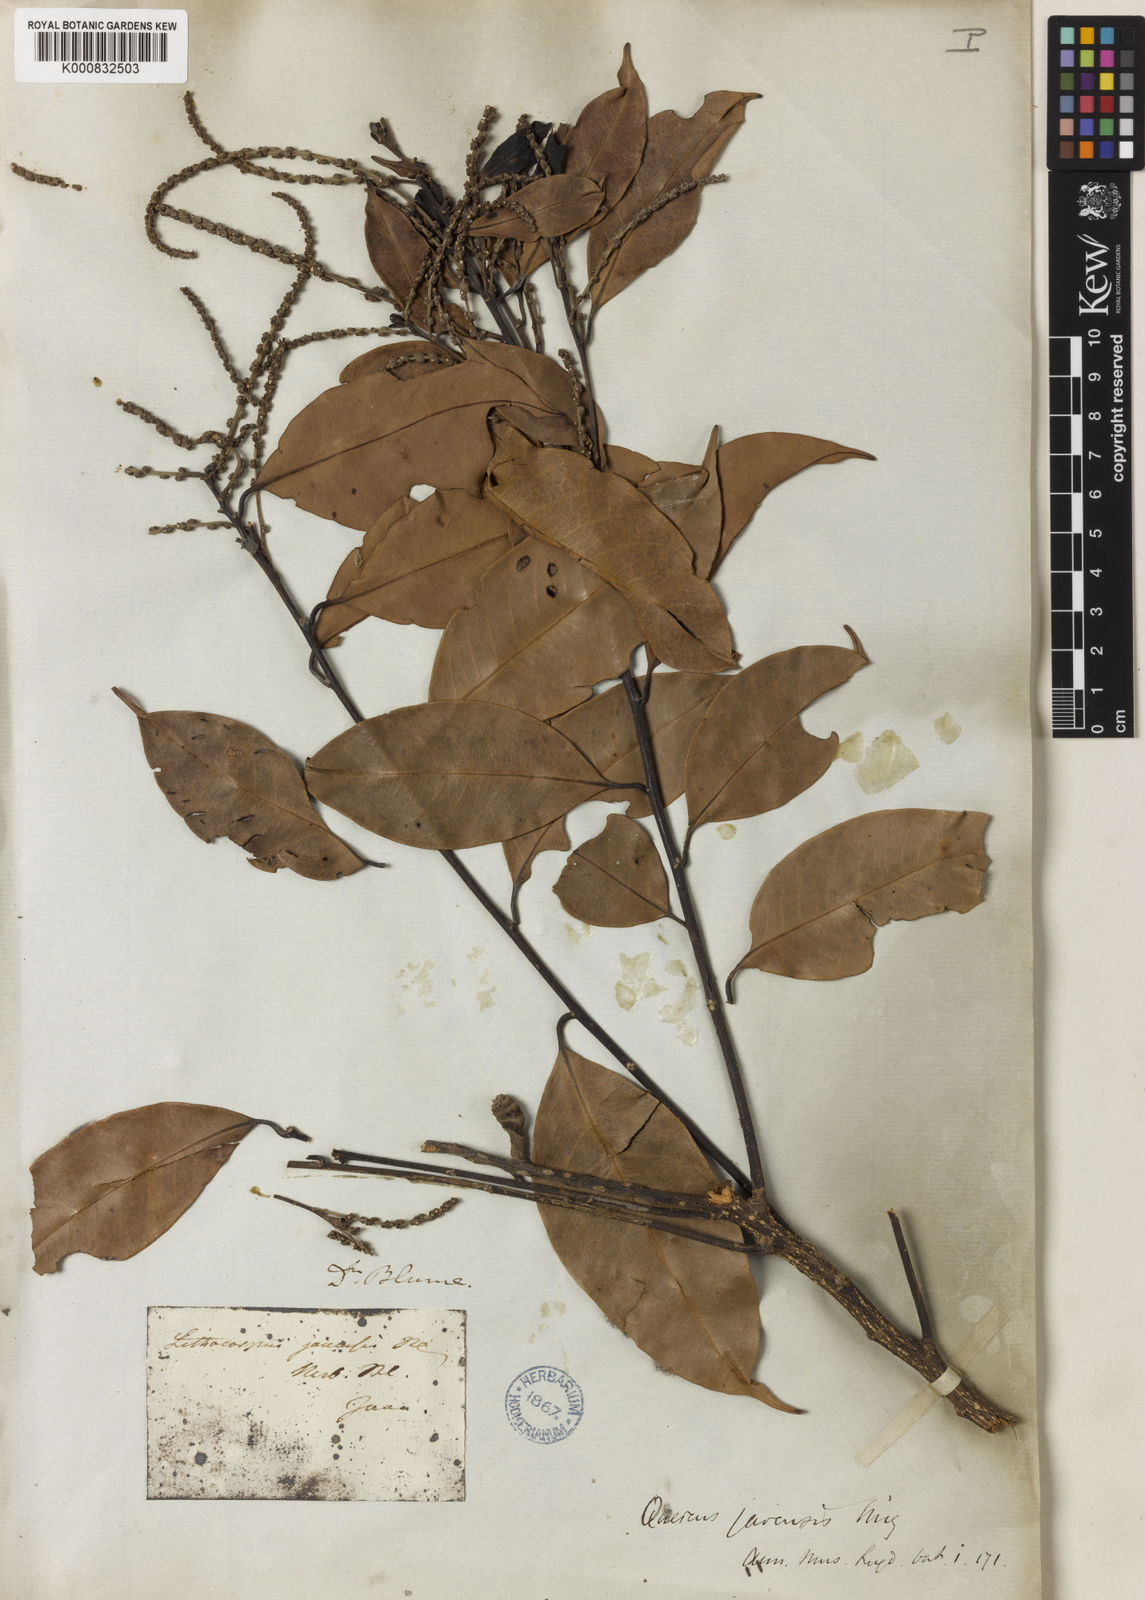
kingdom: Plantae
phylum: Tracheophyta
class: Magnoliopsida
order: Fagales
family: Fagaceae
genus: Lithocarpus
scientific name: Lithocarpus javensis
